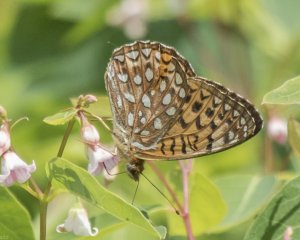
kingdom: Animalia
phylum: Arthropoda
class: Insecta
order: Lepidoptera
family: Nymphalidae
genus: Speyeria
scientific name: Speyeria atlantis
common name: Atlantis Fritillary
